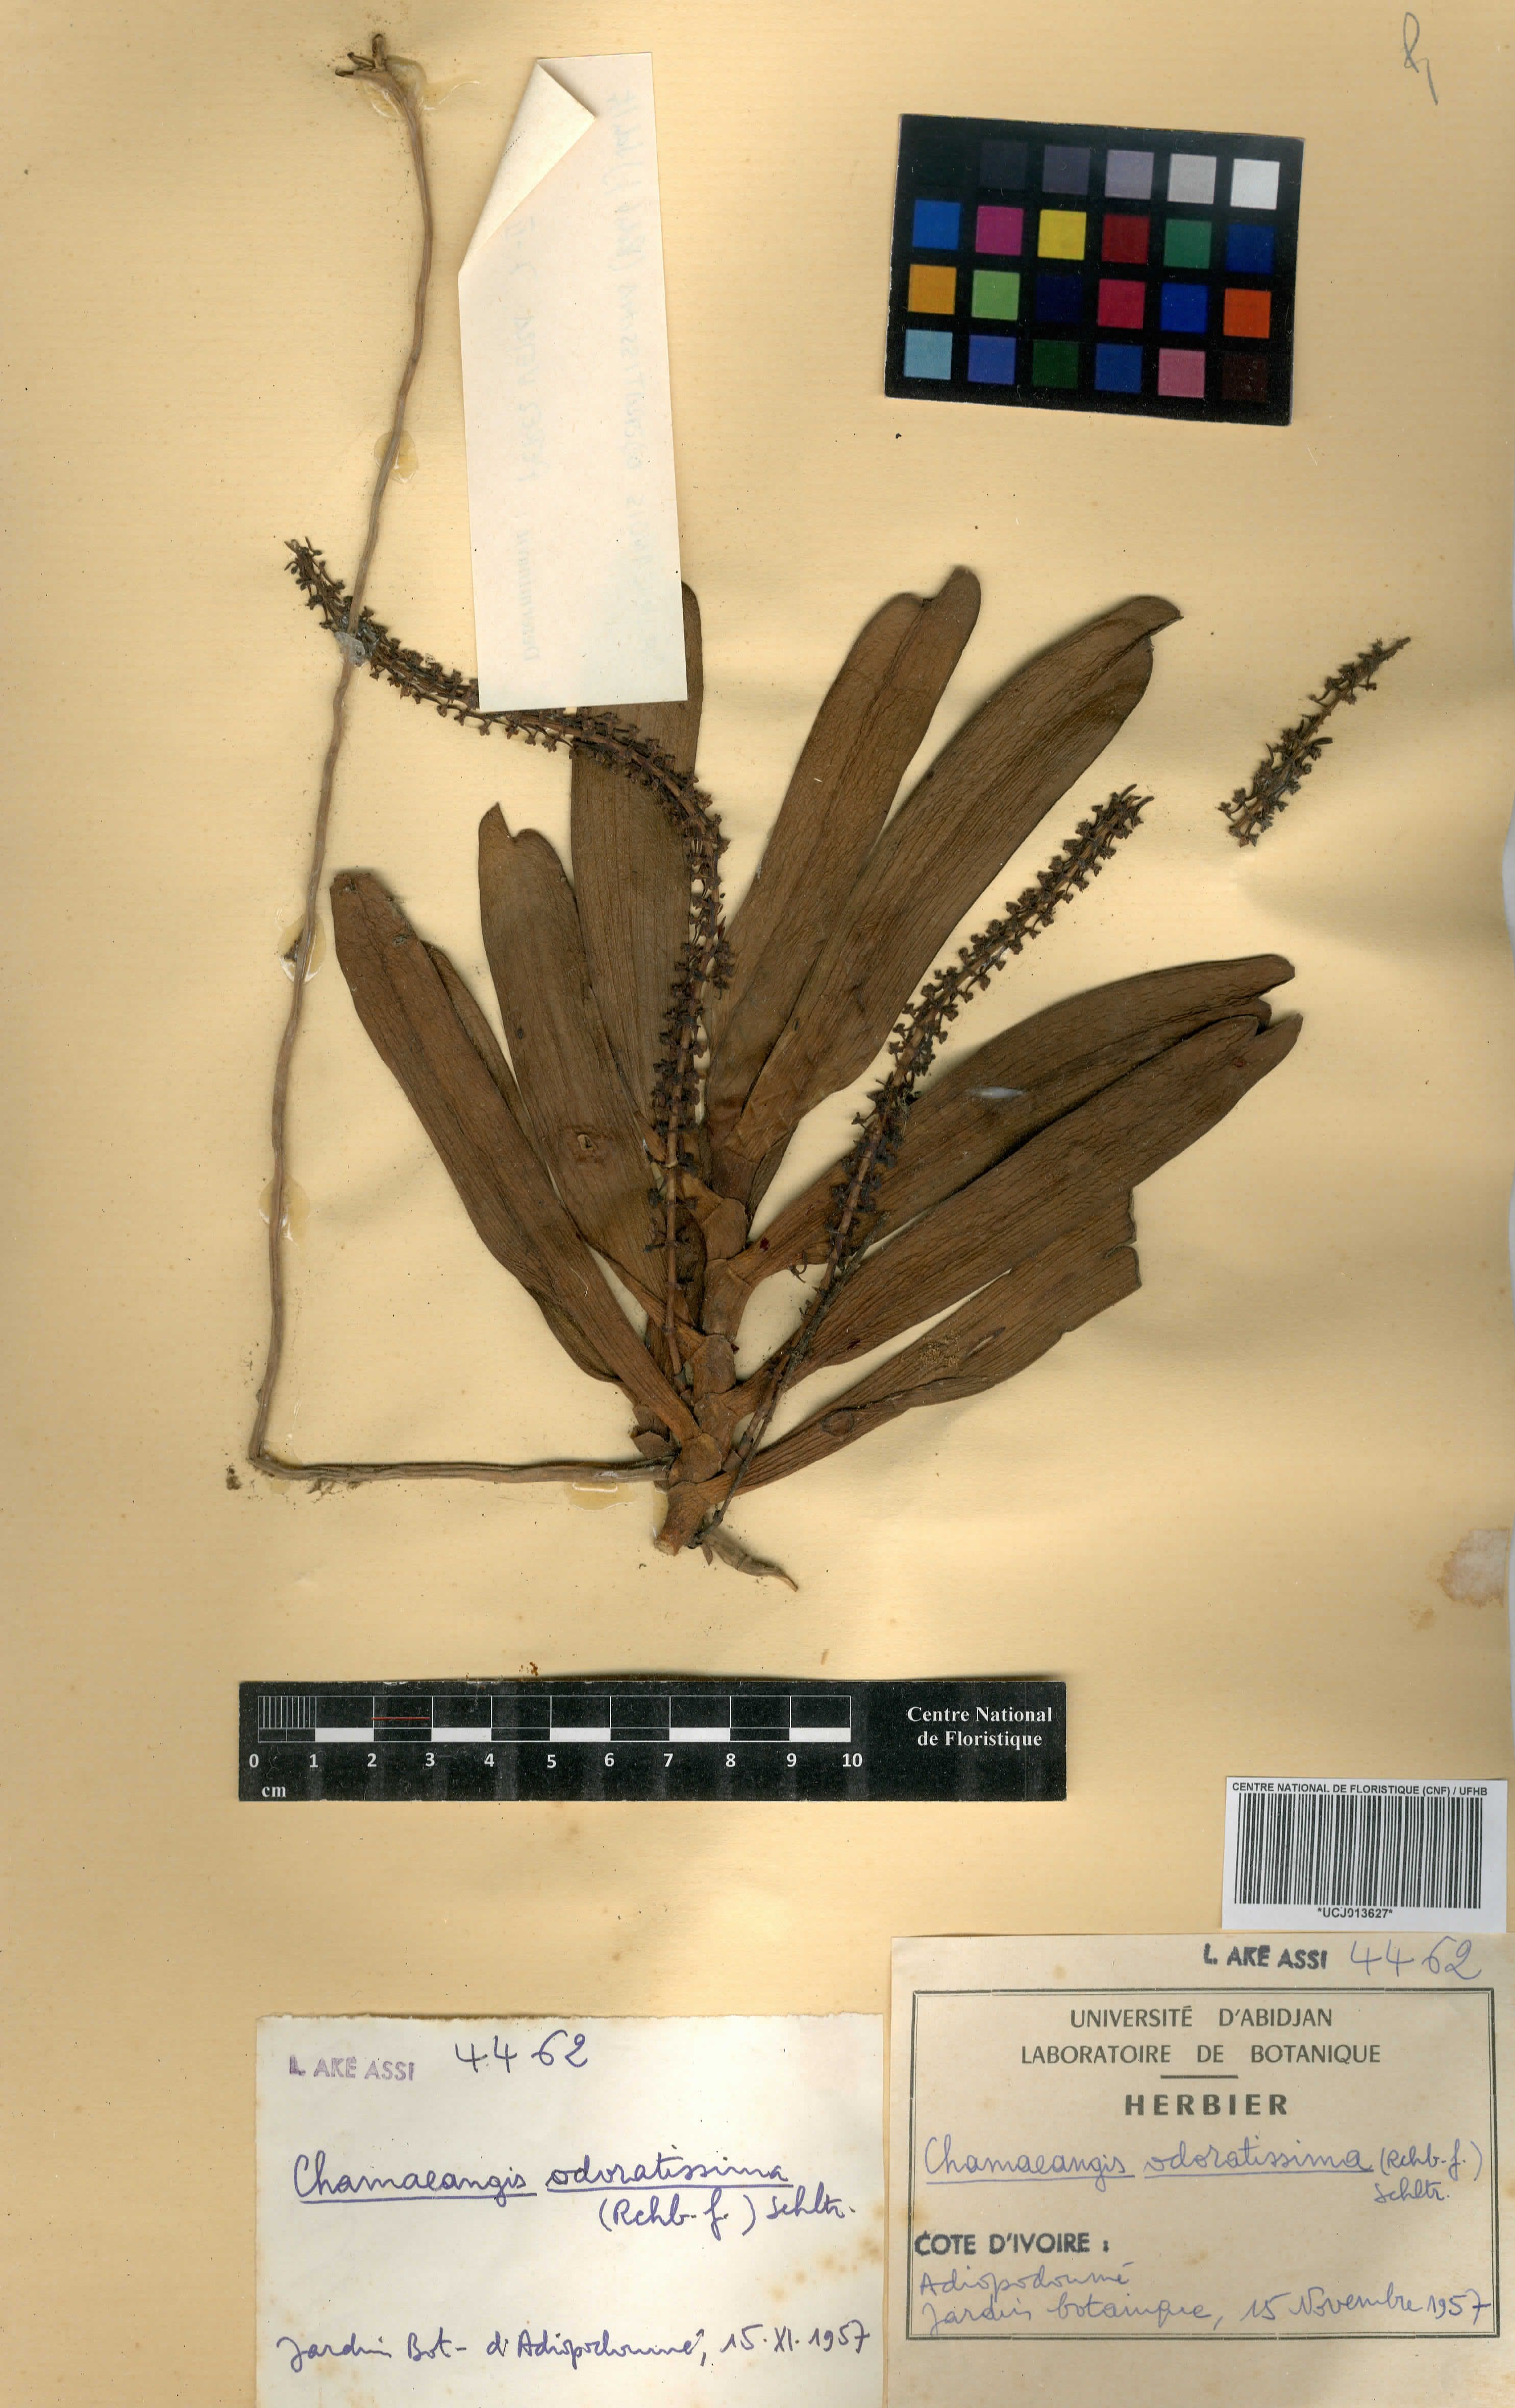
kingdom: Plantae
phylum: Tracheophyta
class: Liliopsida
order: Asparagales
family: Orchidaceae
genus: Diaphananthe
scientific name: Diaphananthe odoratissima
